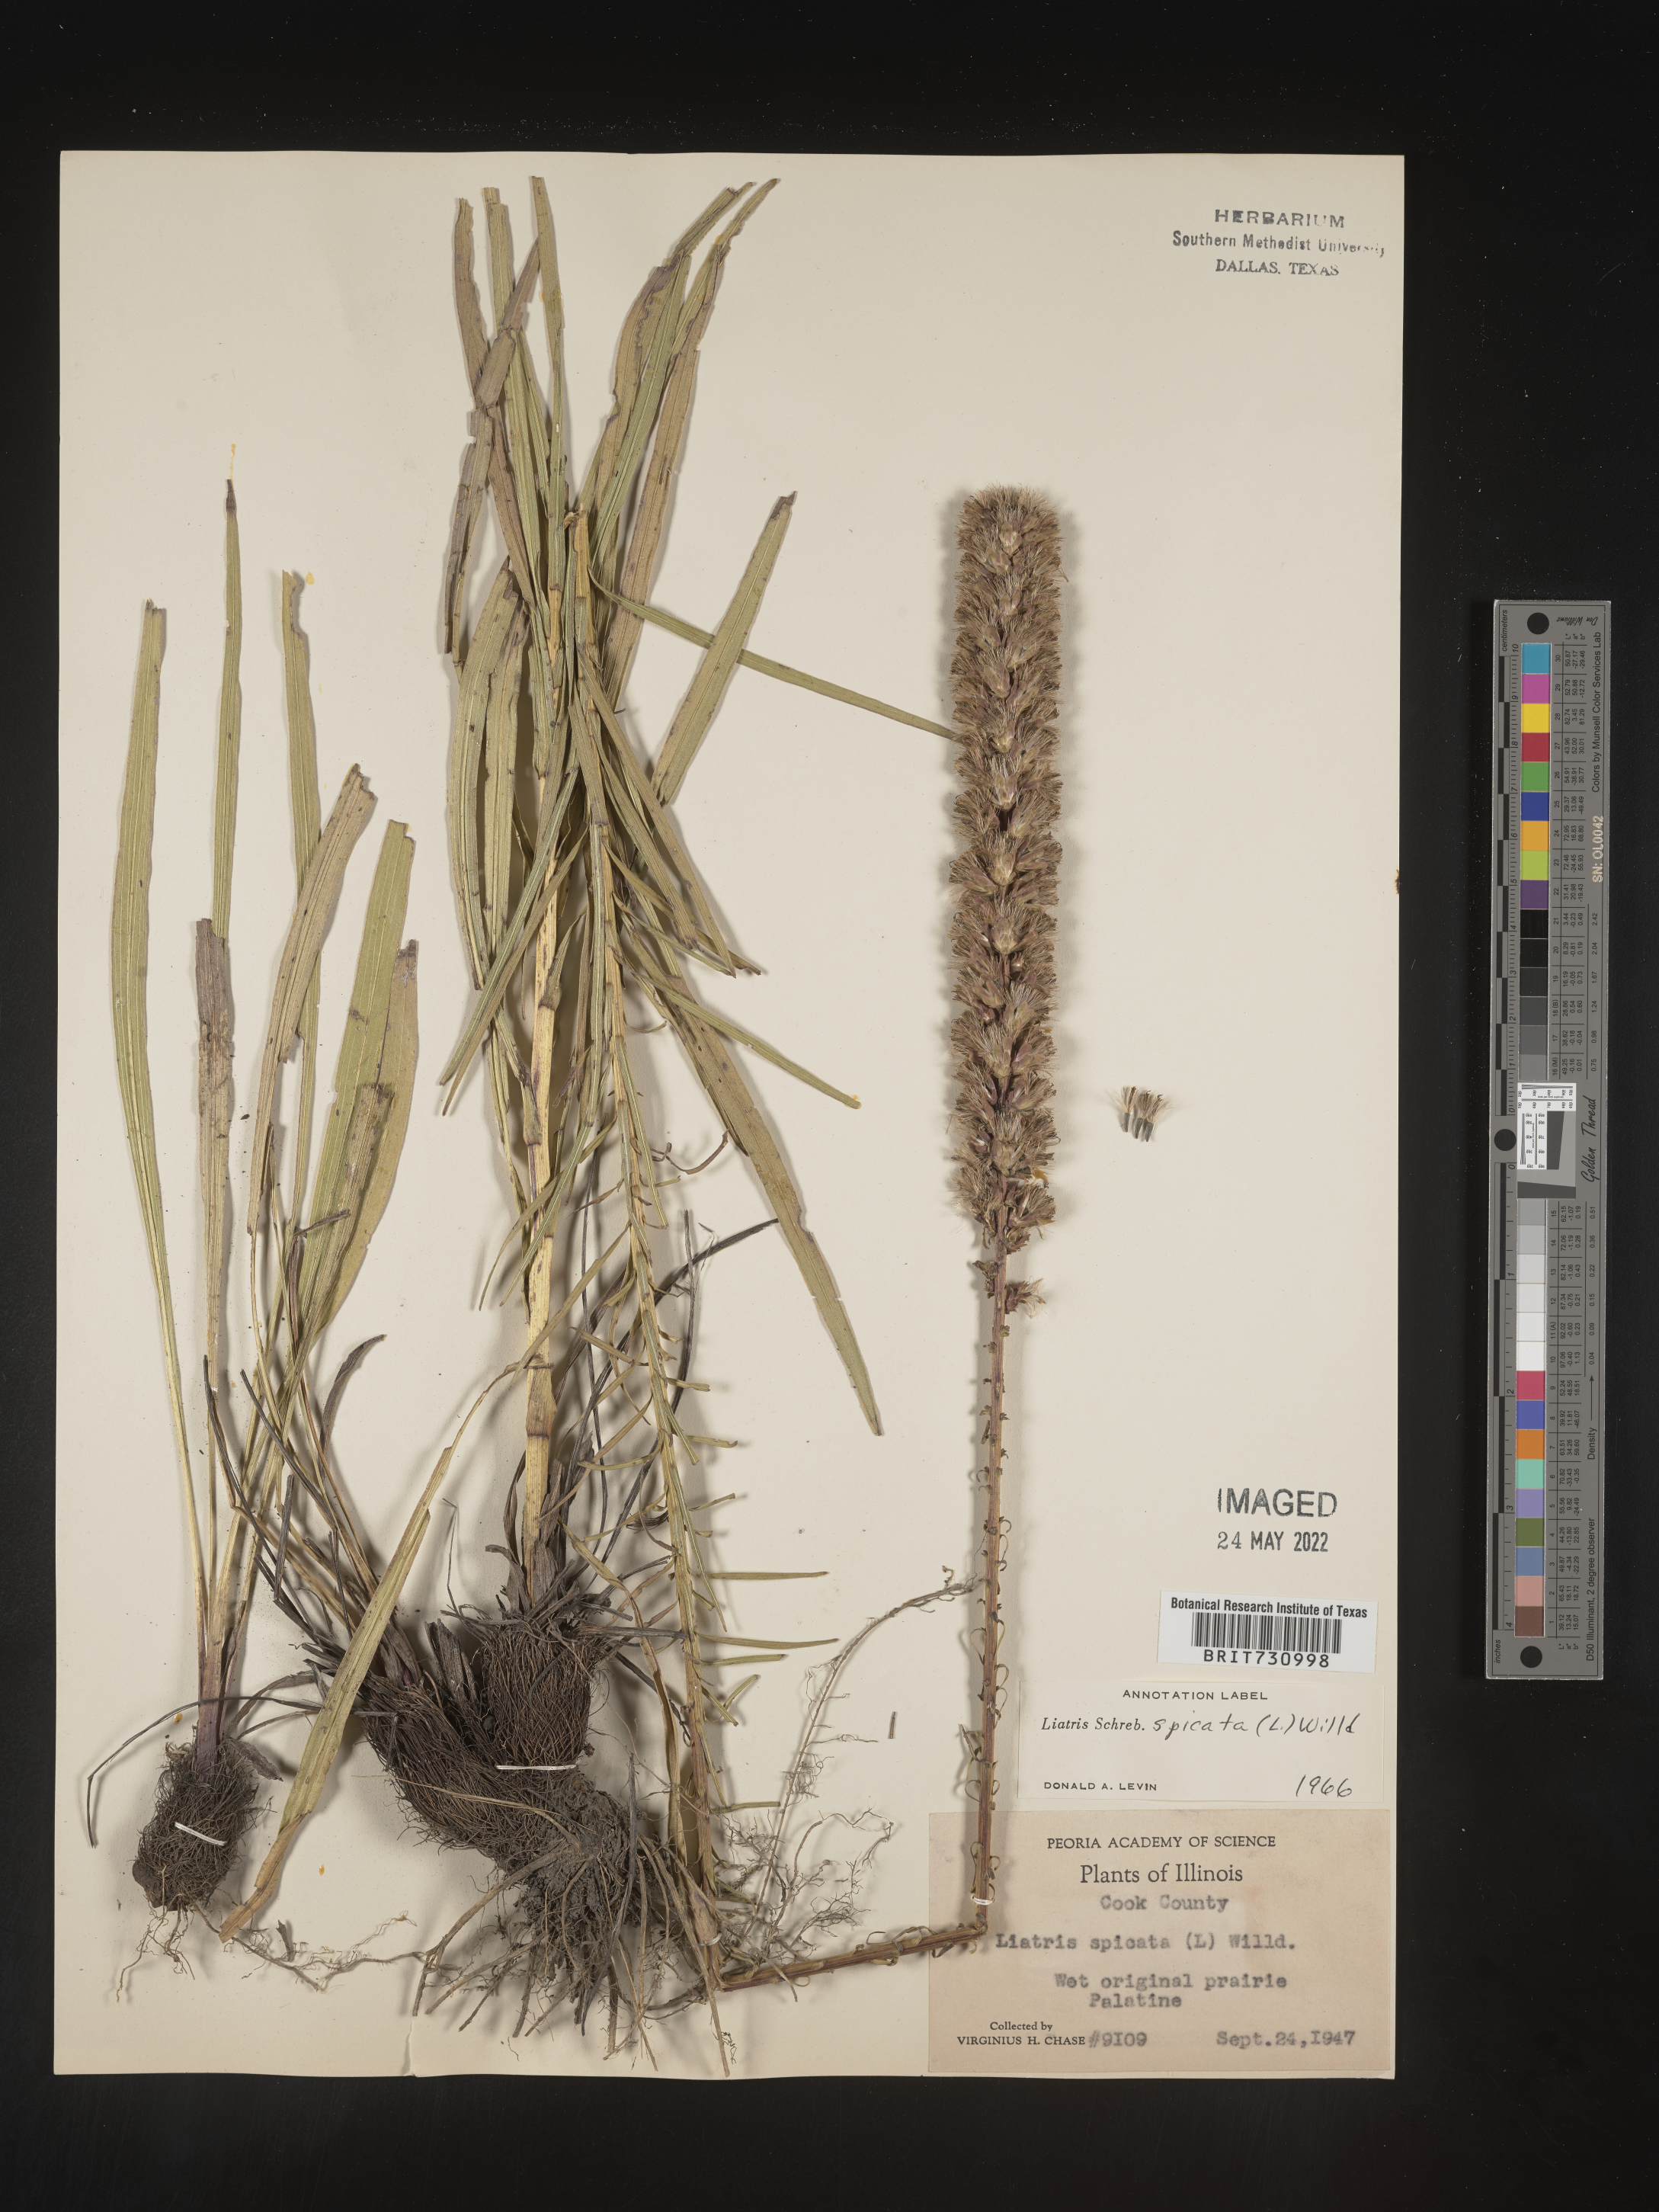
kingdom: Plantae
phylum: Tracheophyta
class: Magnoliopsida
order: Asterales
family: Asteraceae
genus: Liatris
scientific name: Liatris spicata
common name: Florist gayfeather
